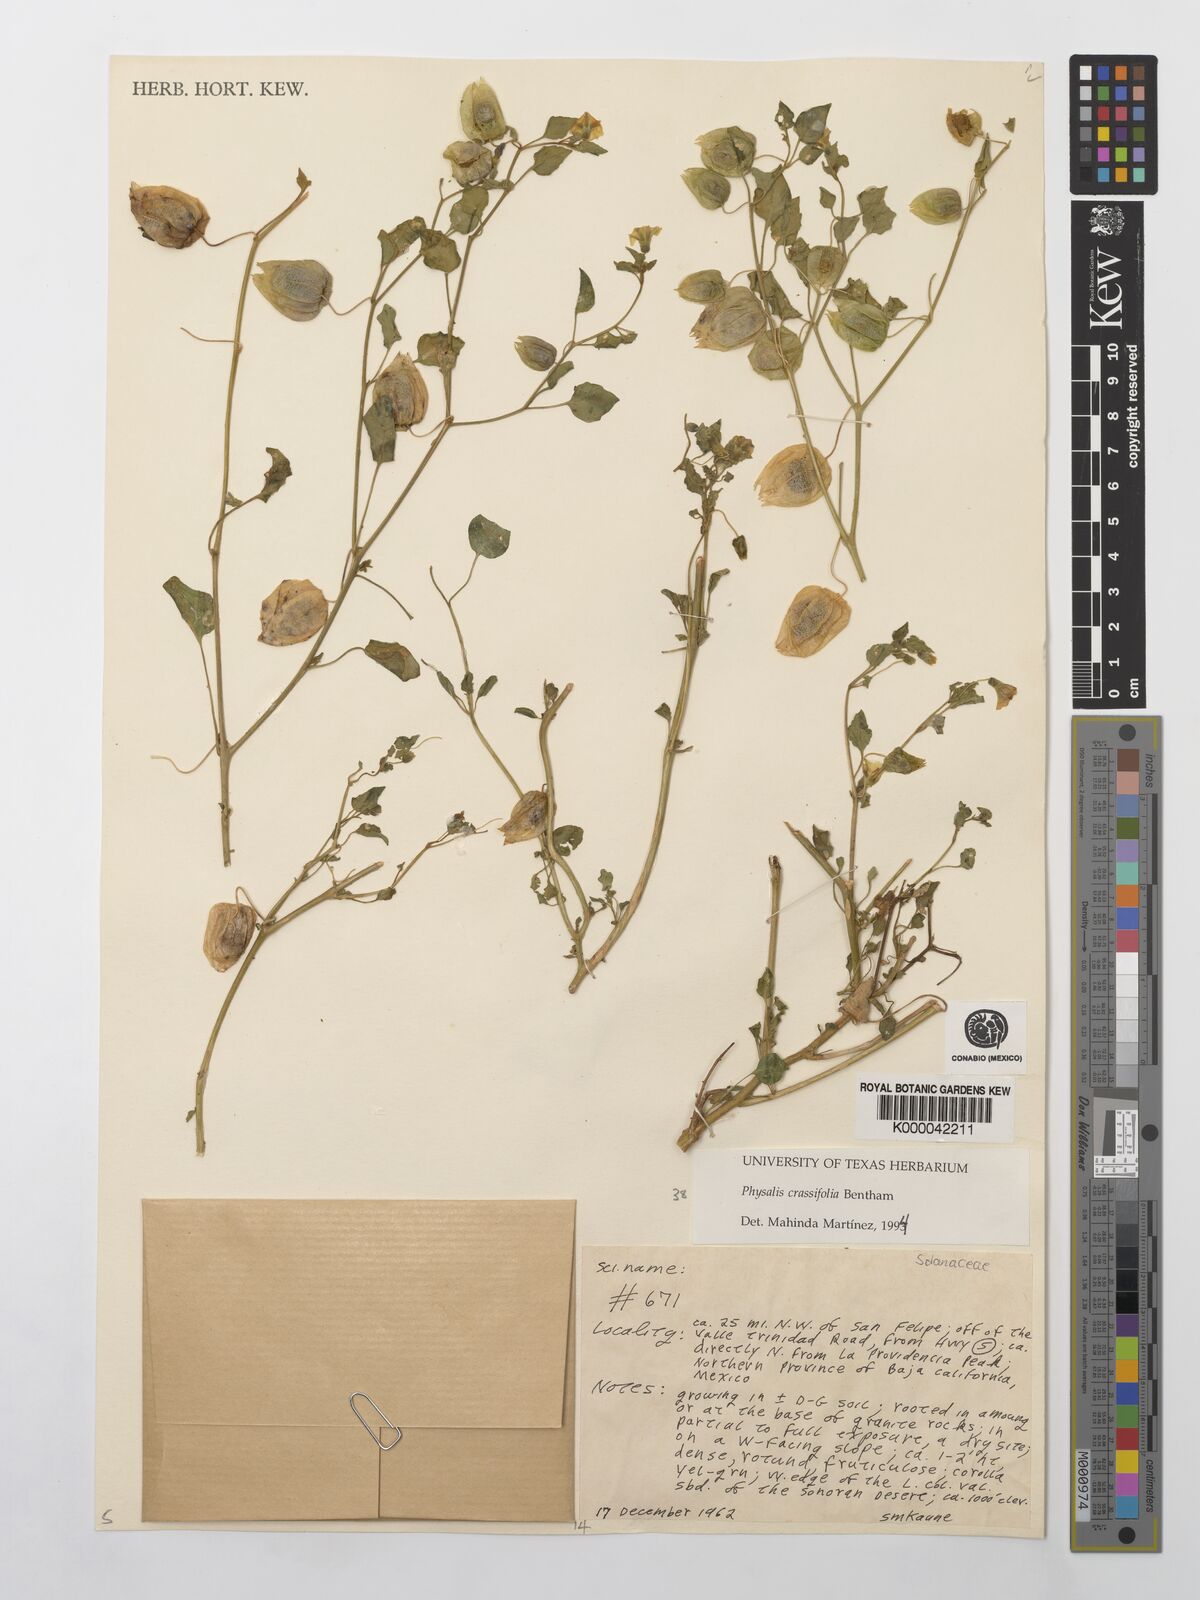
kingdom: Plantae
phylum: Tracheophyta
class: Magnoliopsida
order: Solanales
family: Solanaceae
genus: Physalis
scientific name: Physalis crassifolia
